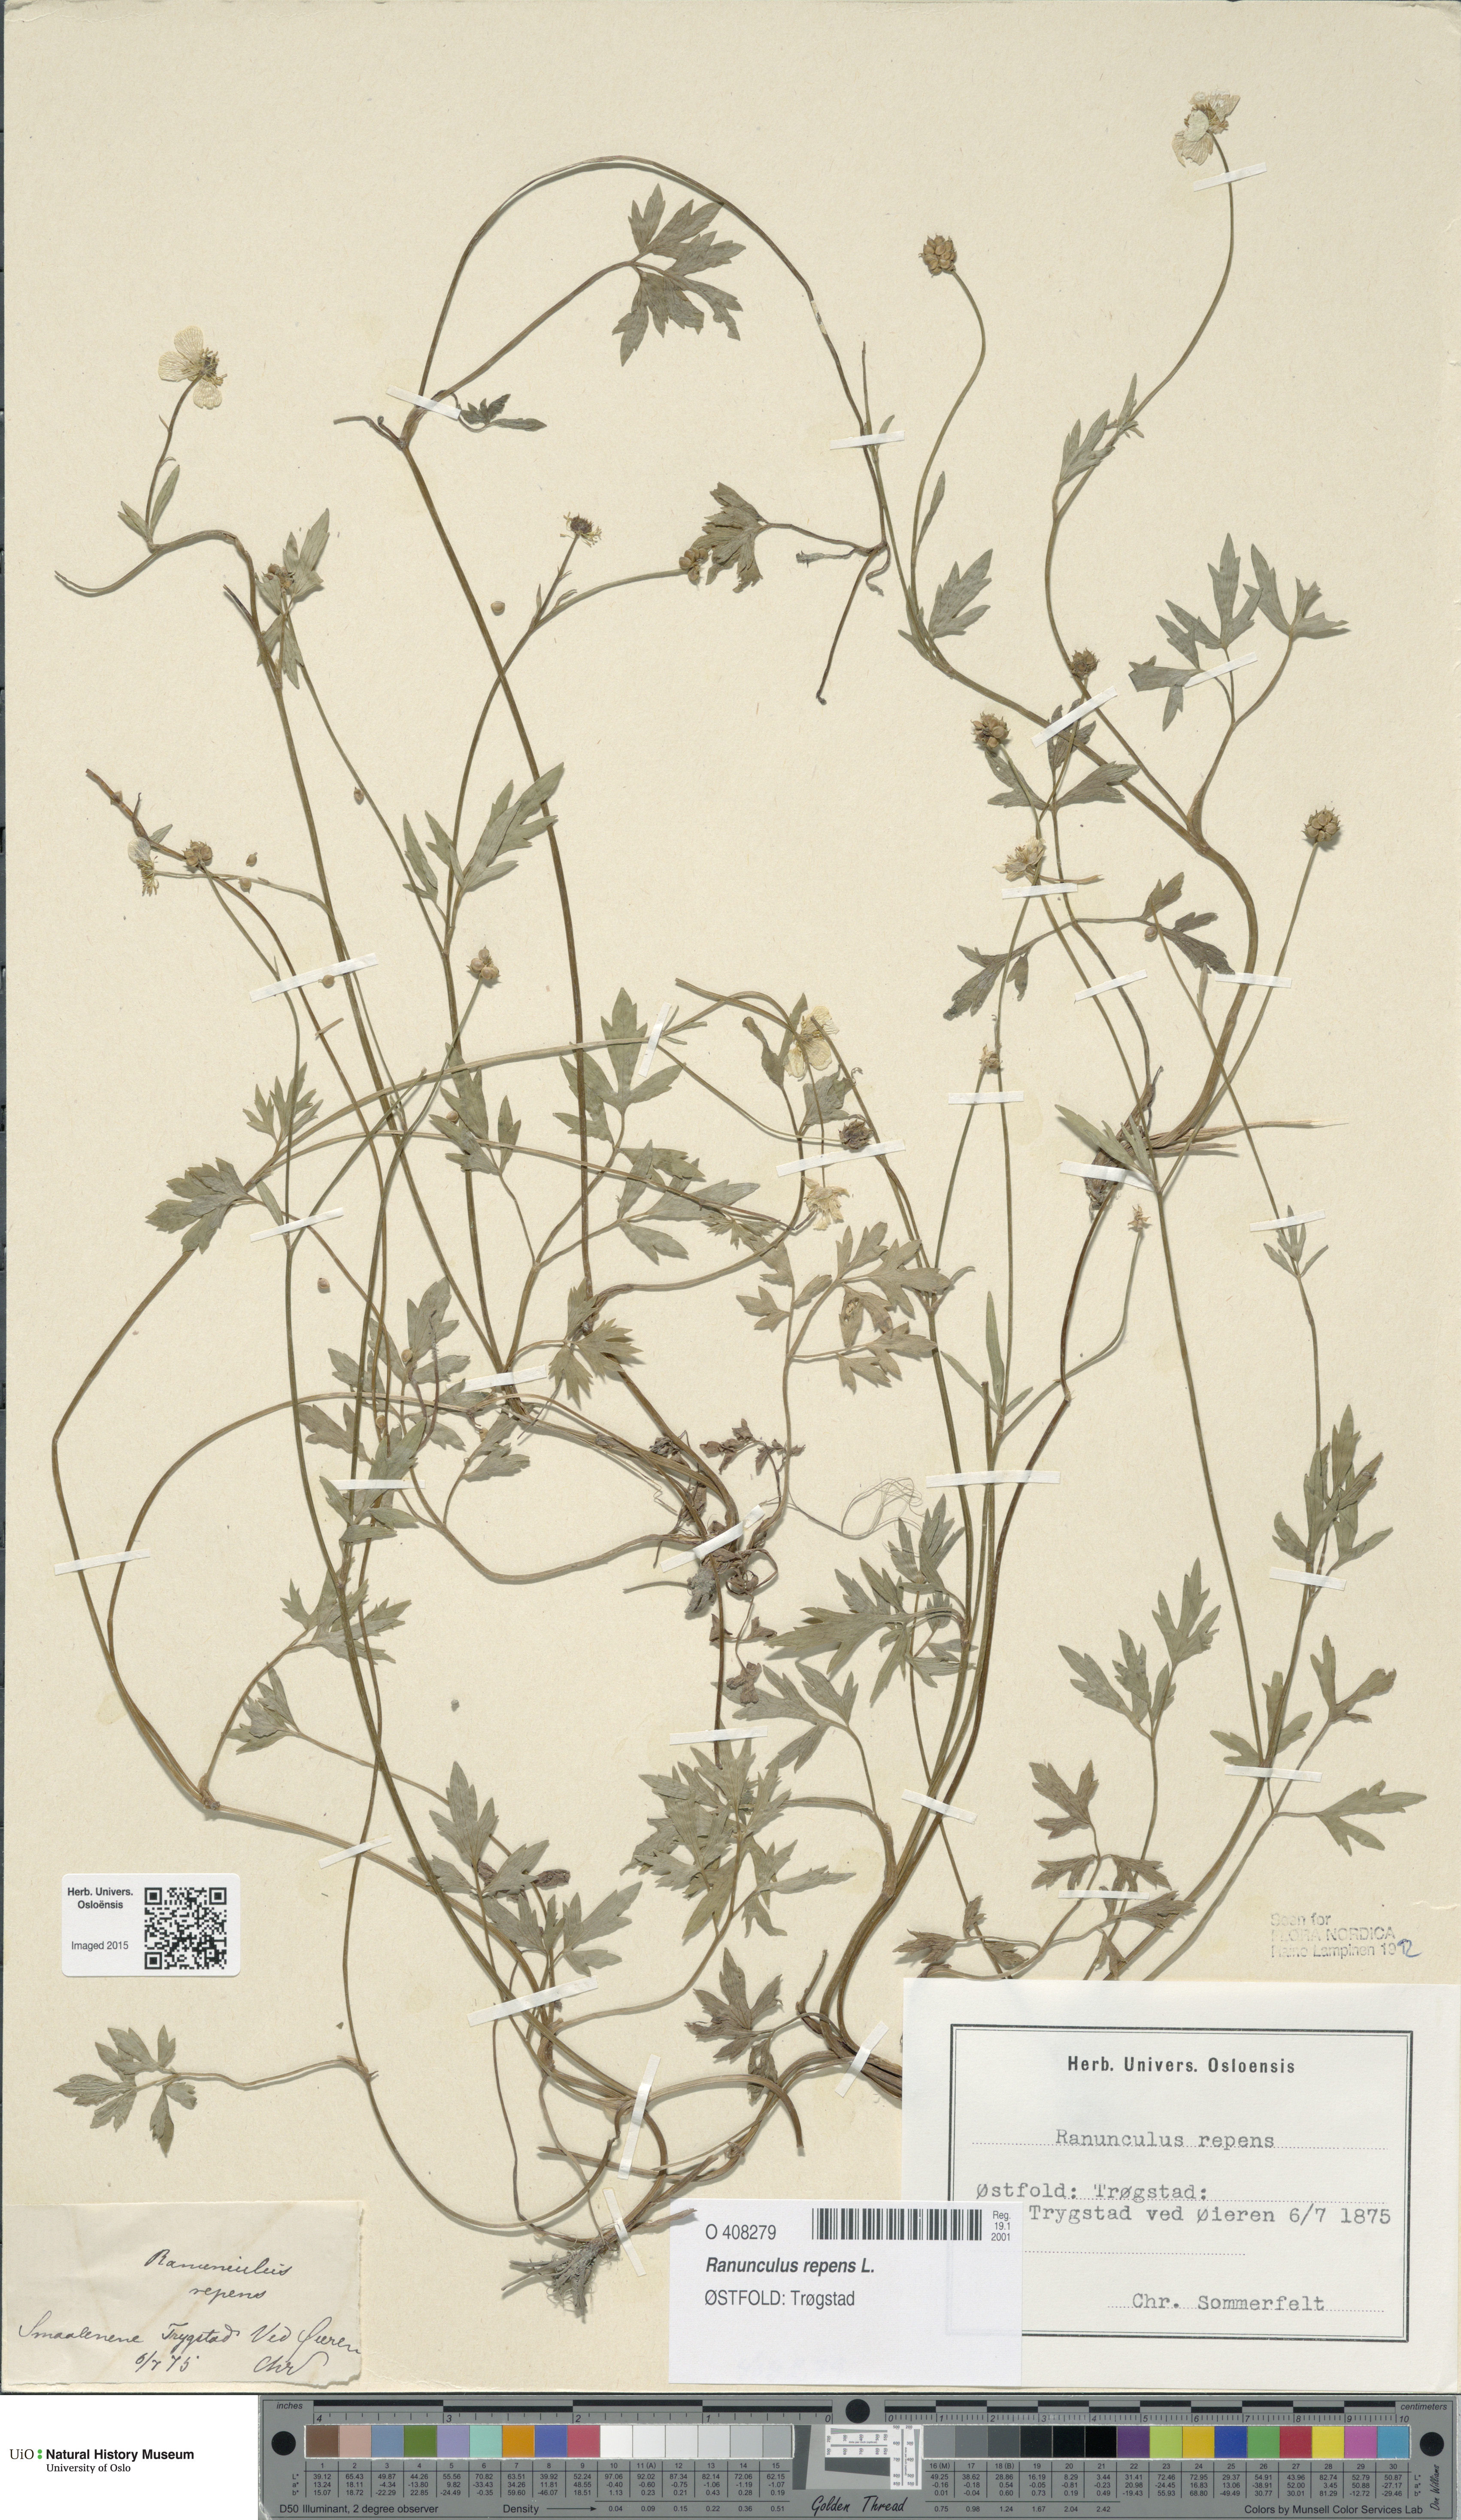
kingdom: Plantae
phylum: Tracheophyta
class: Magnoliopsida
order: Ranunculales
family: Ranunculaceae
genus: Ranunculus
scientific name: Ranunculus repens
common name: Creeping buttercup
